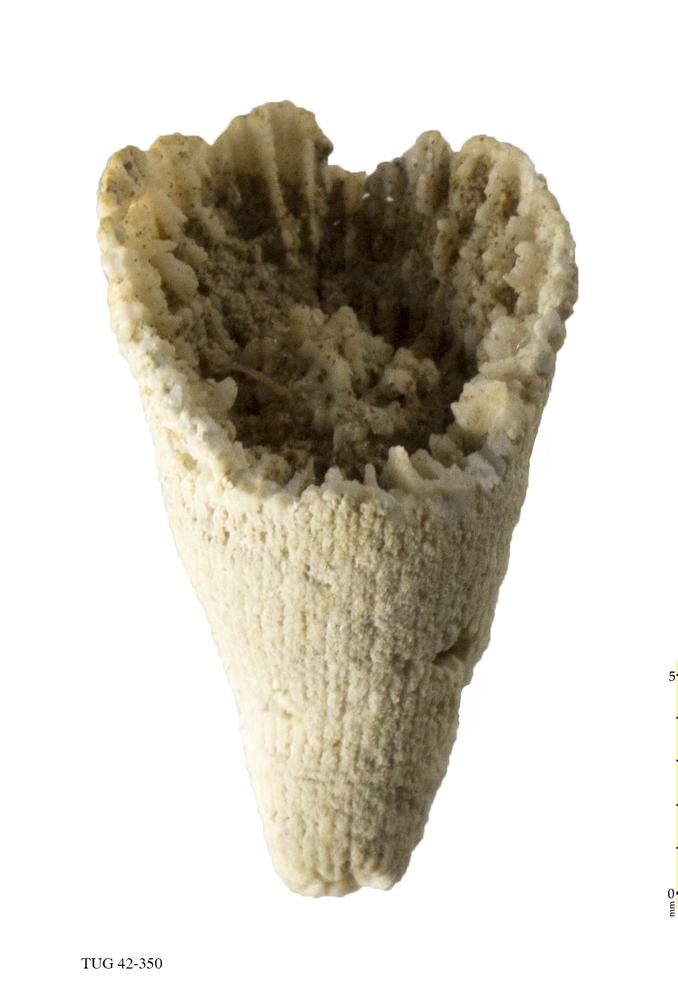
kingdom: Animalia
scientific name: Animalia
